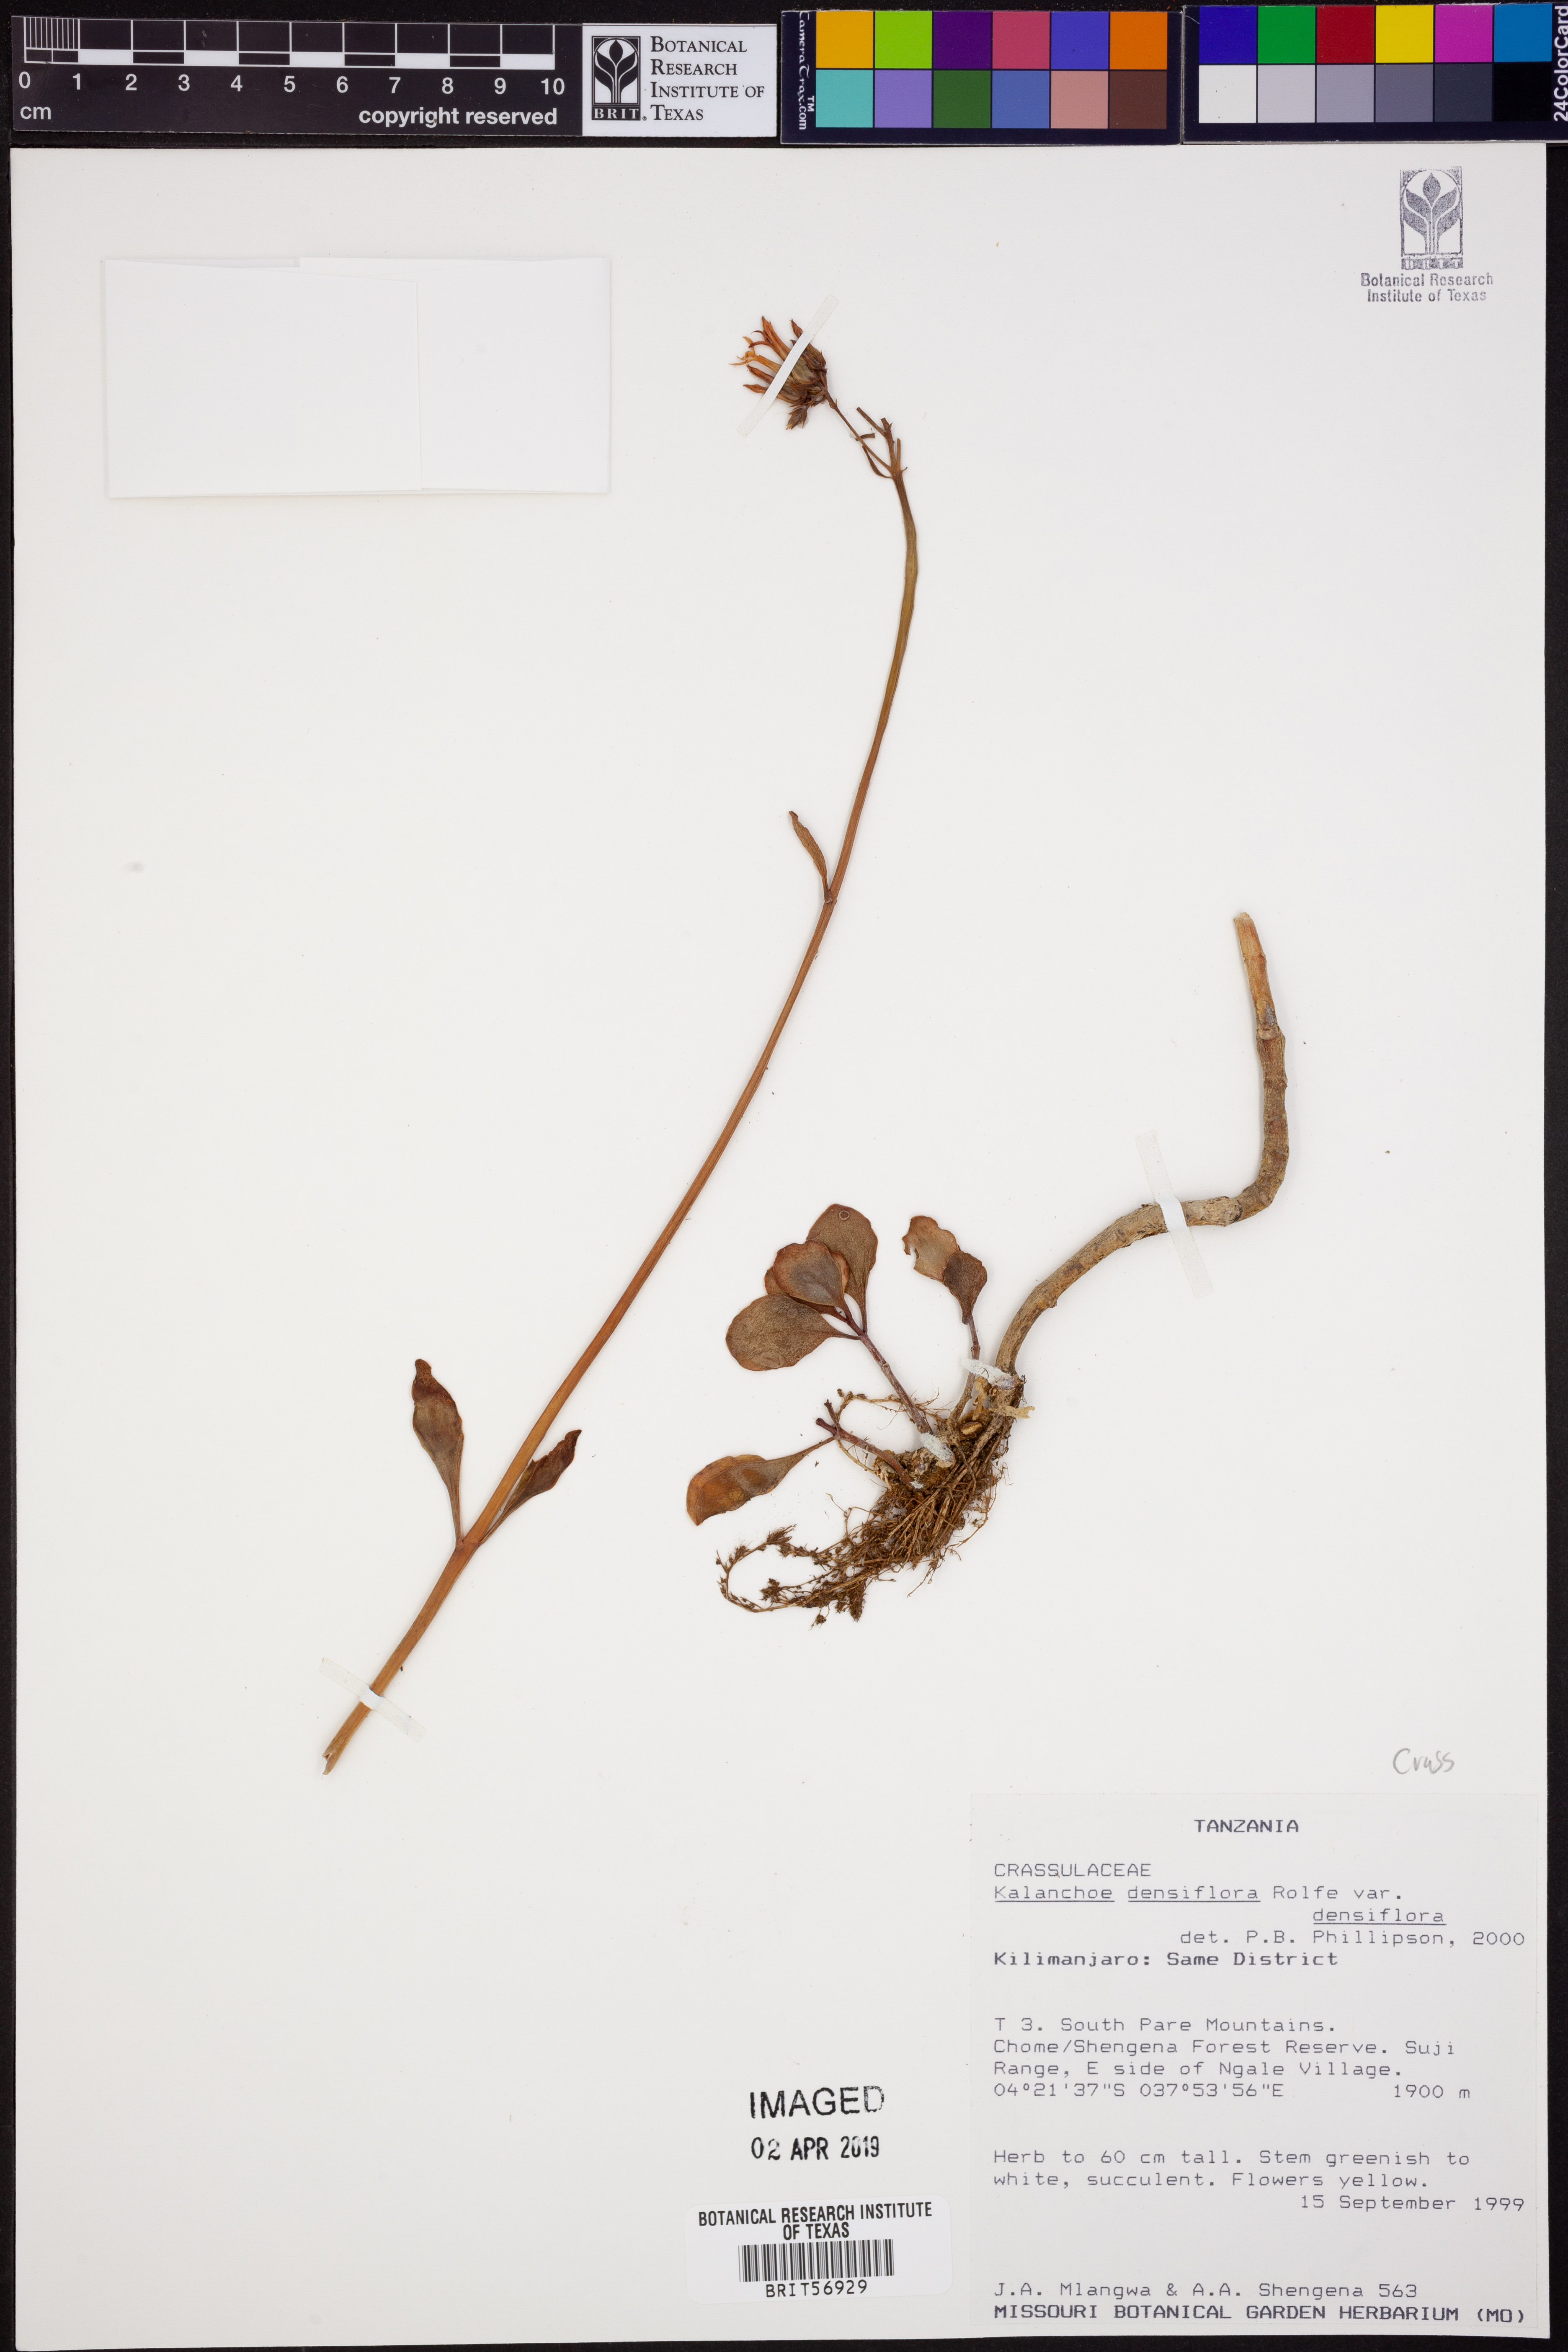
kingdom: Plantae
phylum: Tracheophyta
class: Magnoliopsida
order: Saxifragales
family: Crassulaceae
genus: Kalanchoe
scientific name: Kalanchoe densiflora
